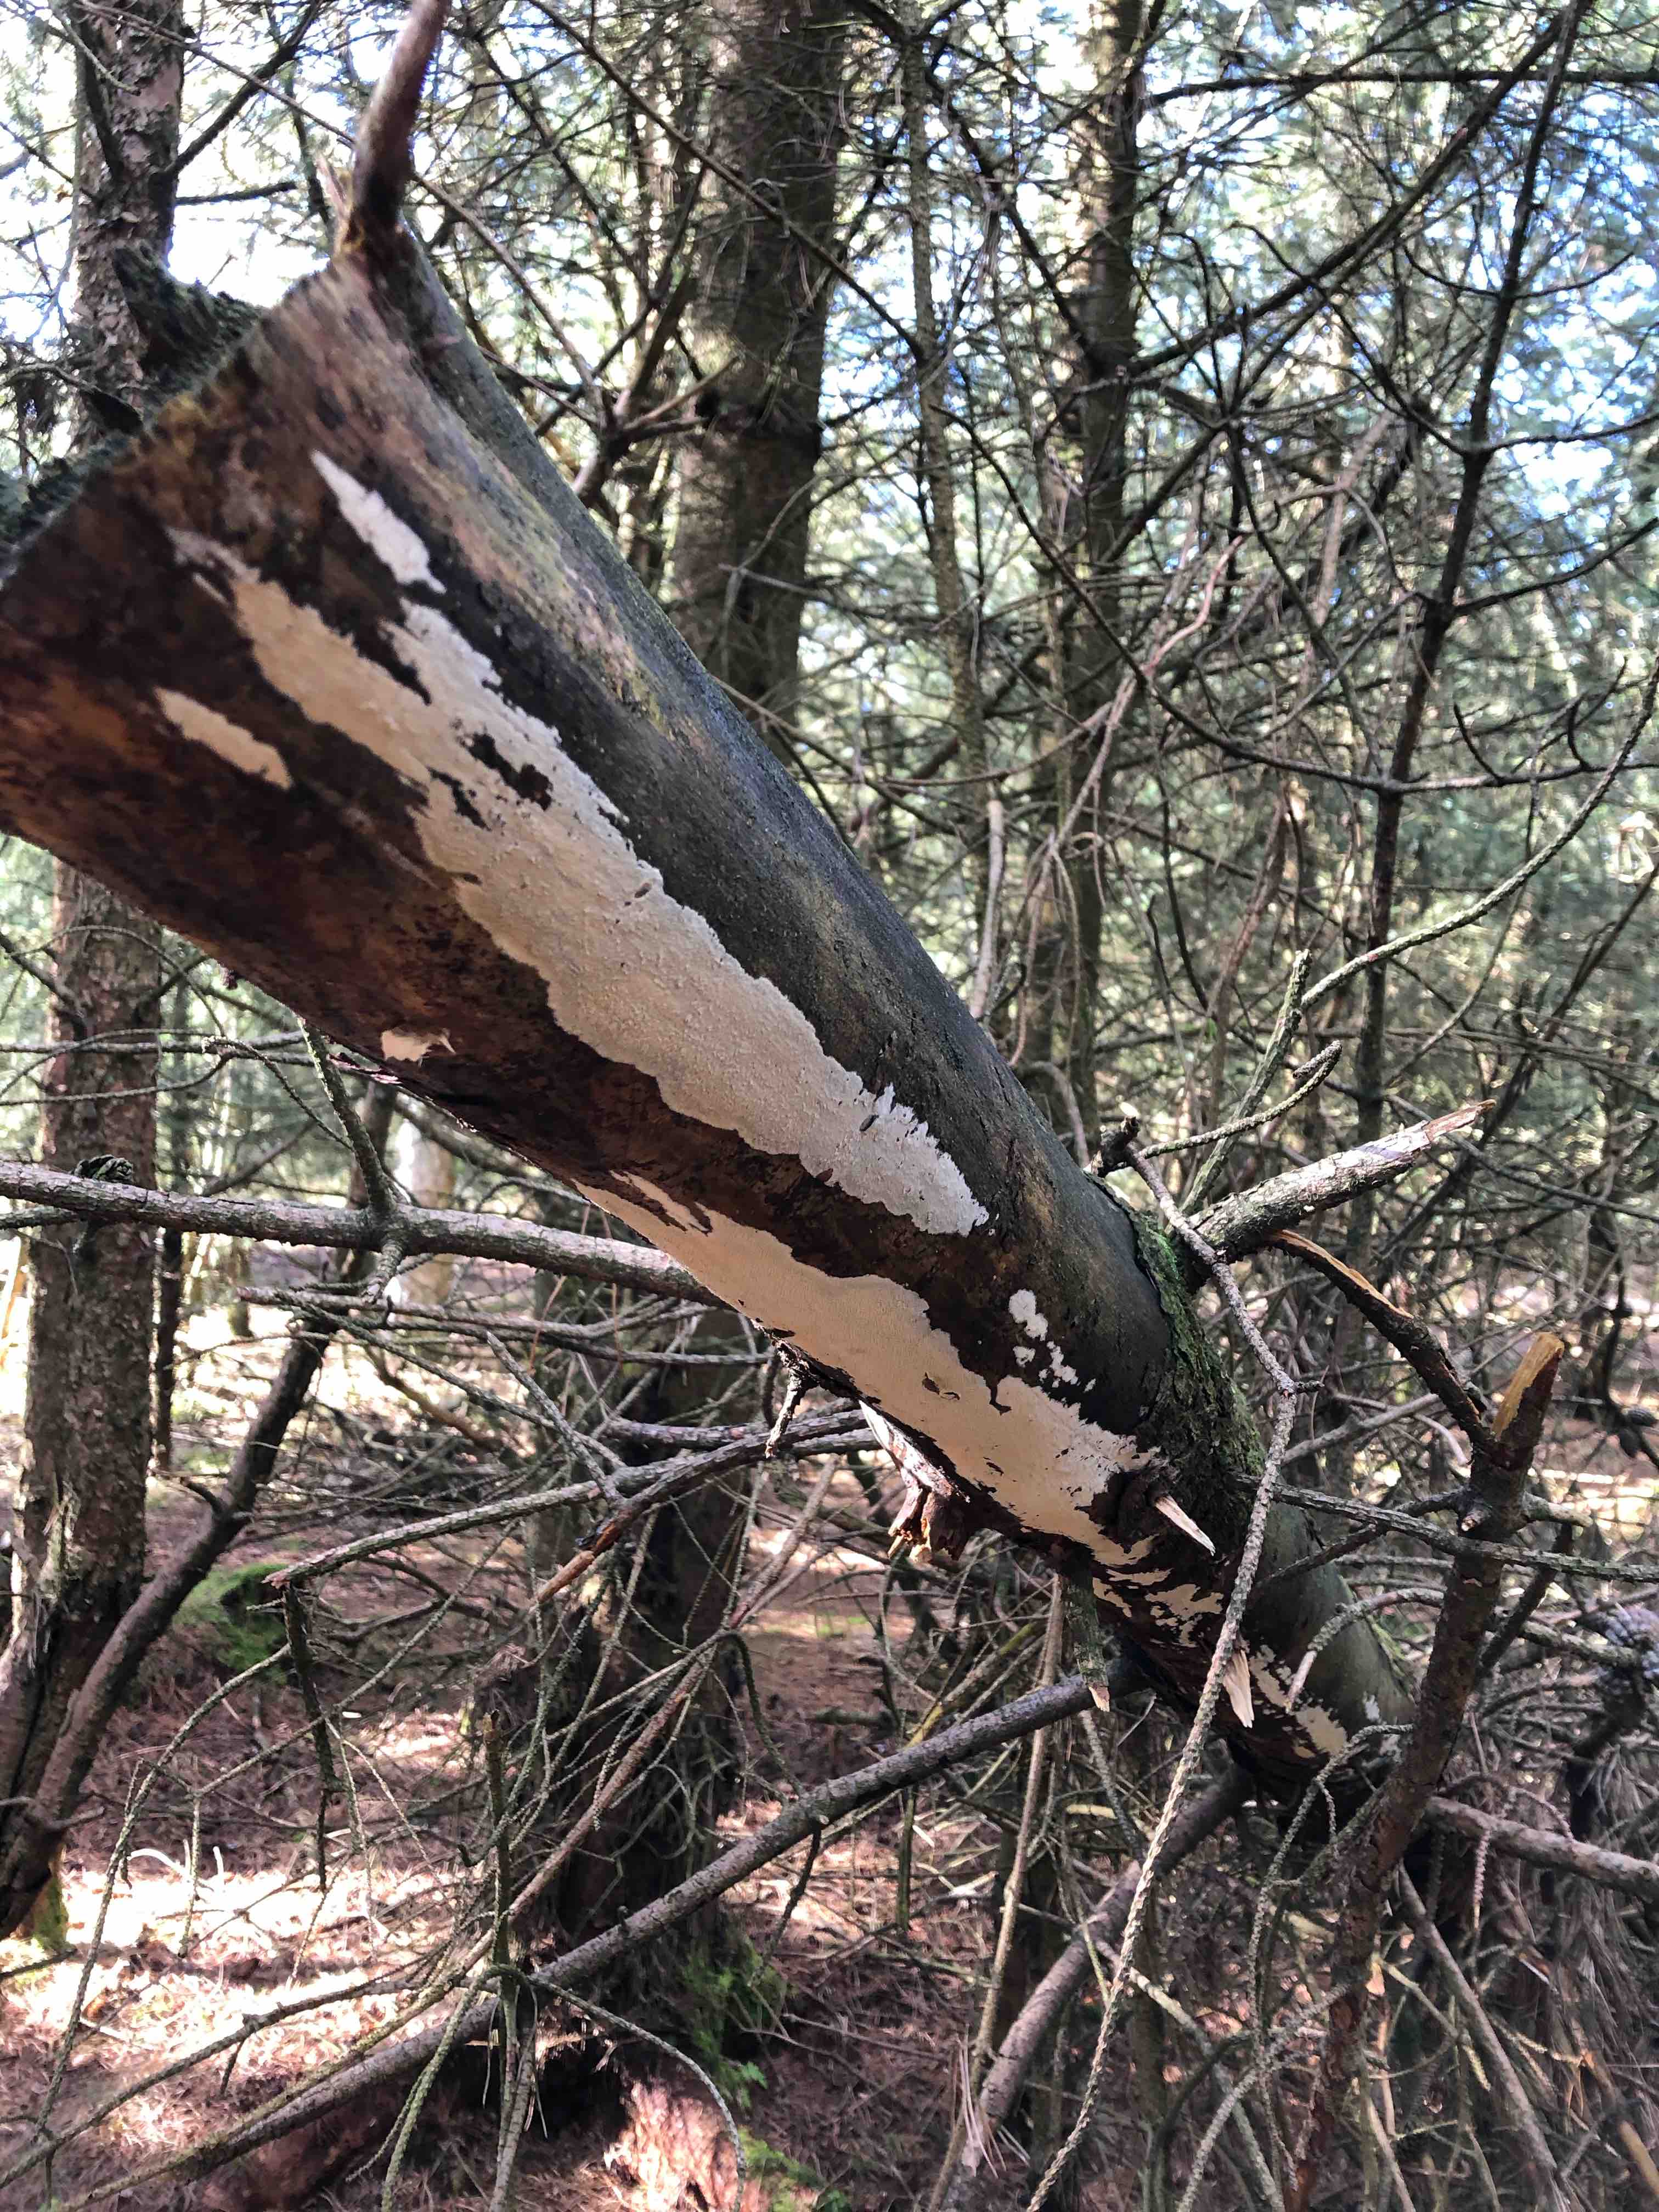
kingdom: Fungi
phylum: Basidiomycota
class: Agaricomycetes
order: Corticiales
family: Corticiaceae
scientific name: Corticiaceae
